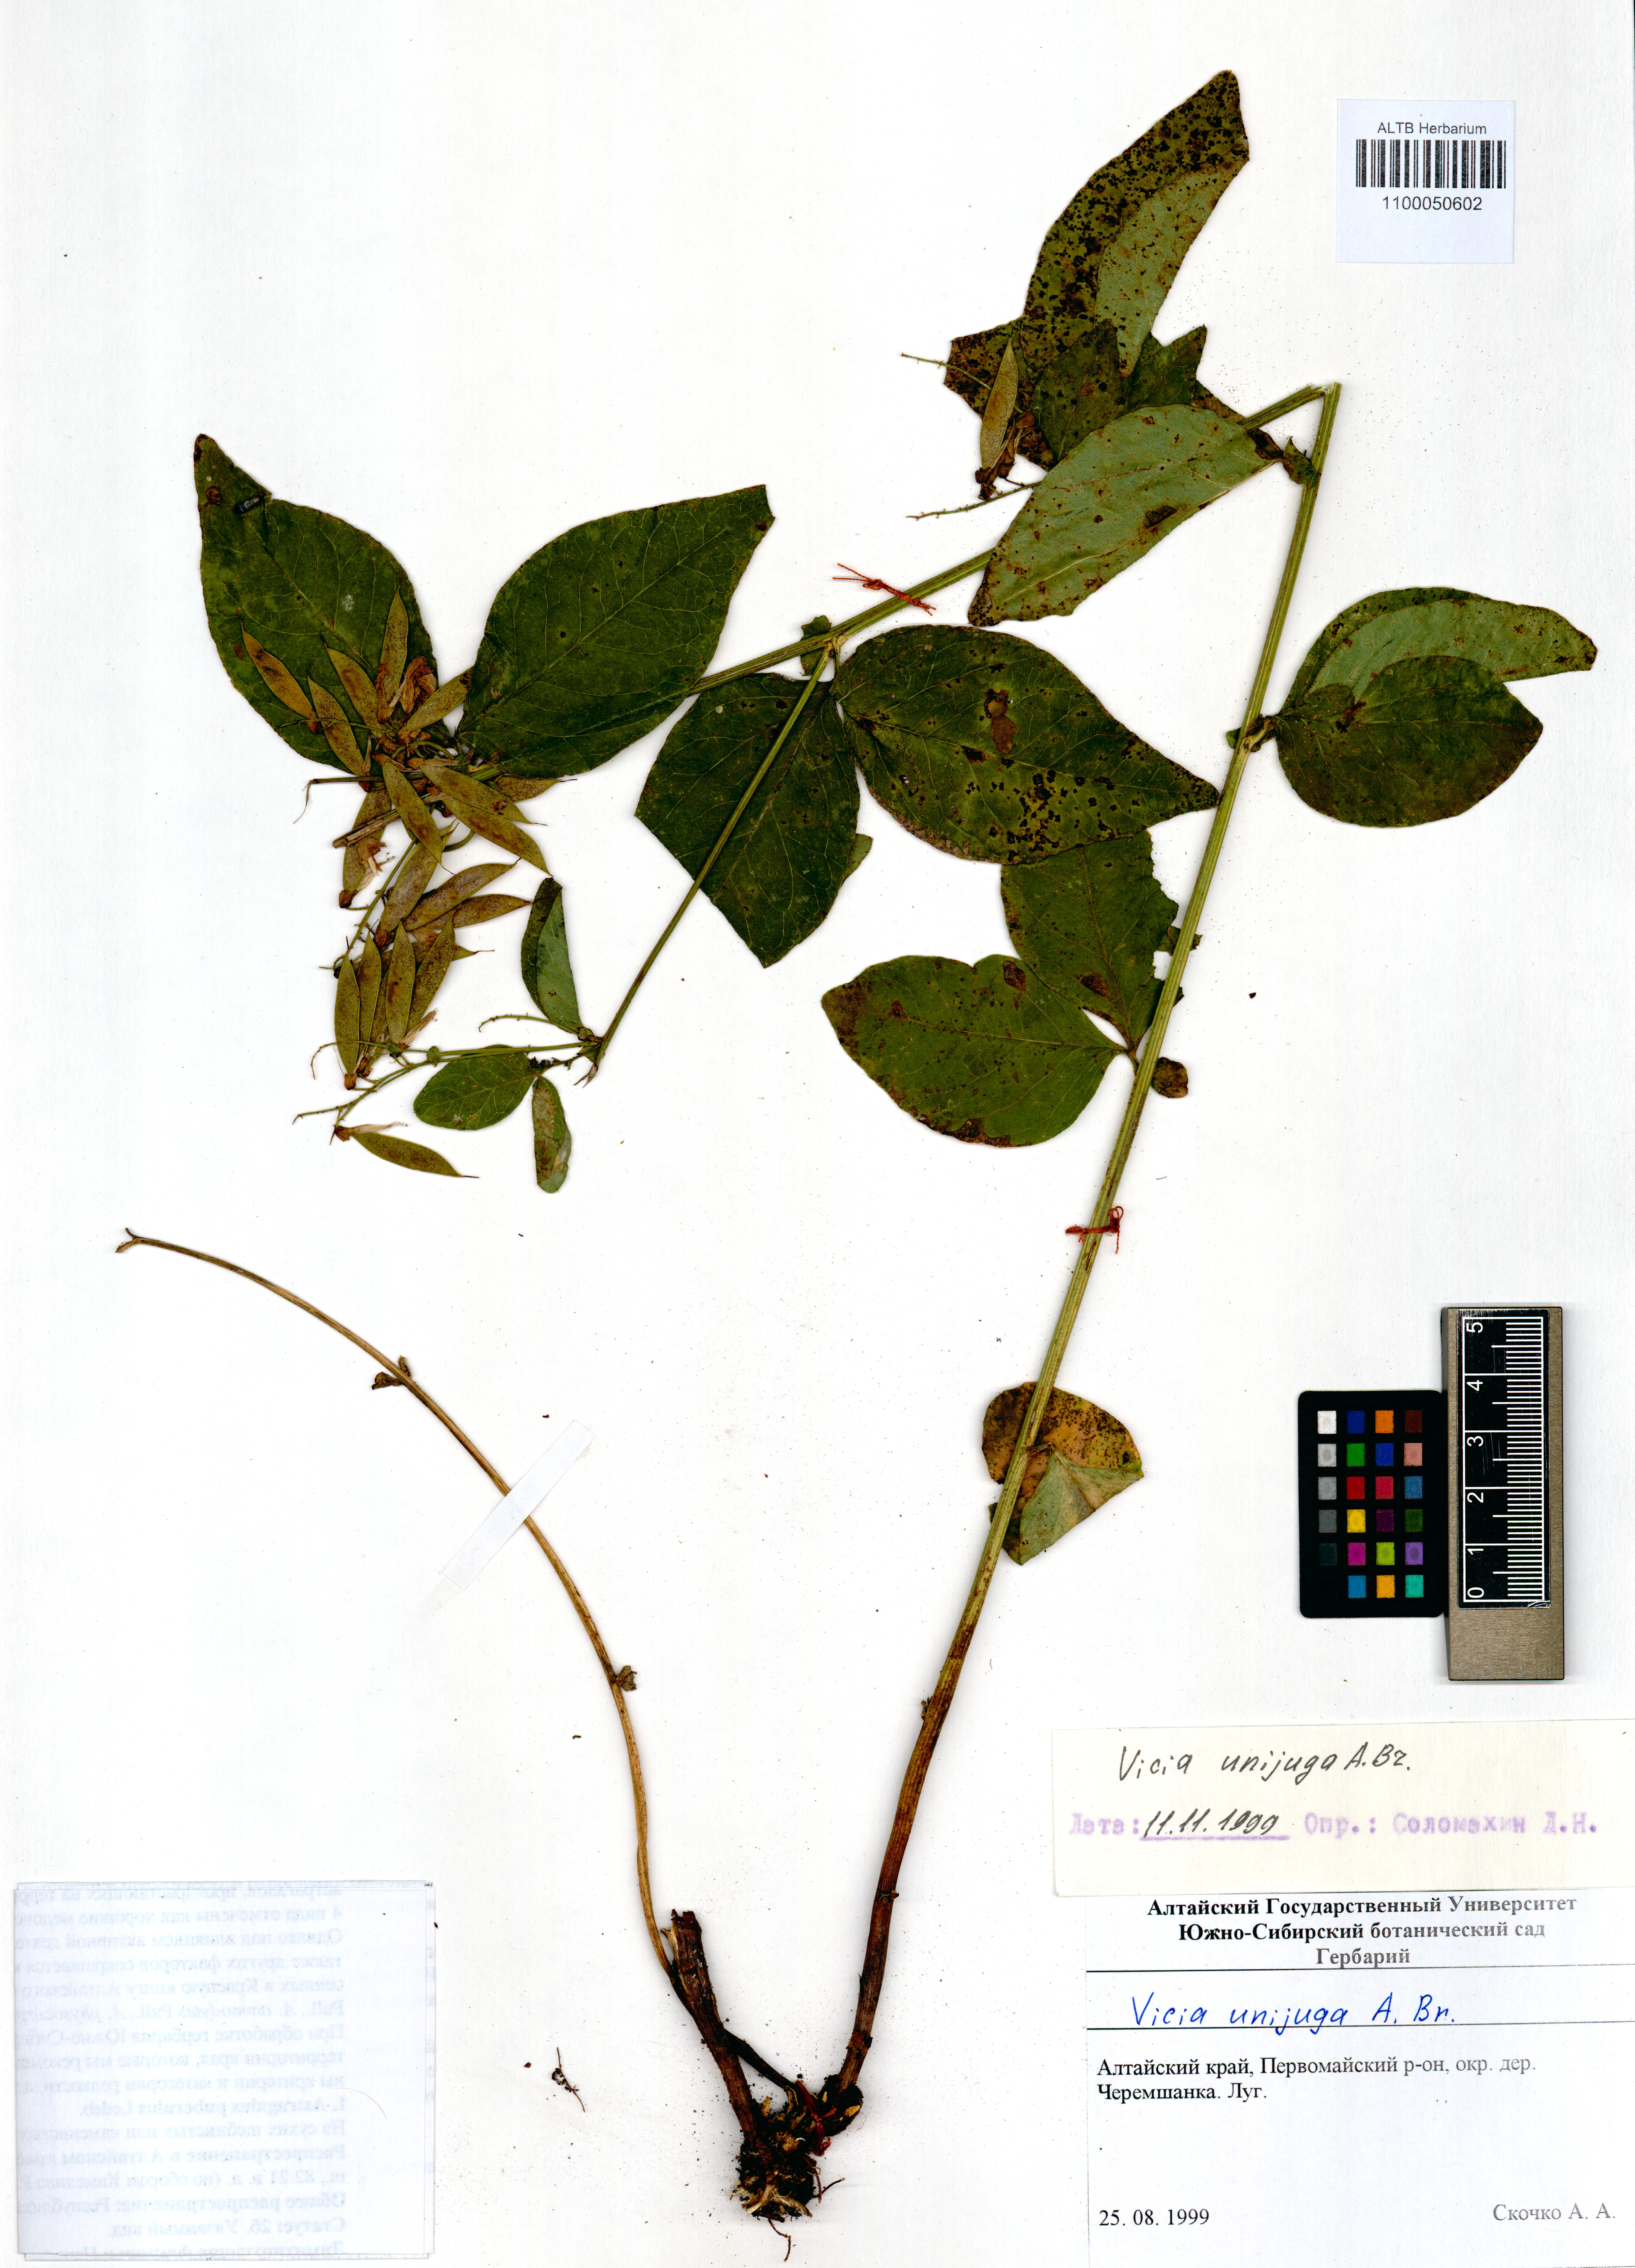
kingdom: Plantae
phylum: Tracheophyta
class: Magnoliopsida
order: Fabales
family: Fabaceae
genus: Vicia
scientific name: Vicia unijuga
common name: Two-leaf vetch
